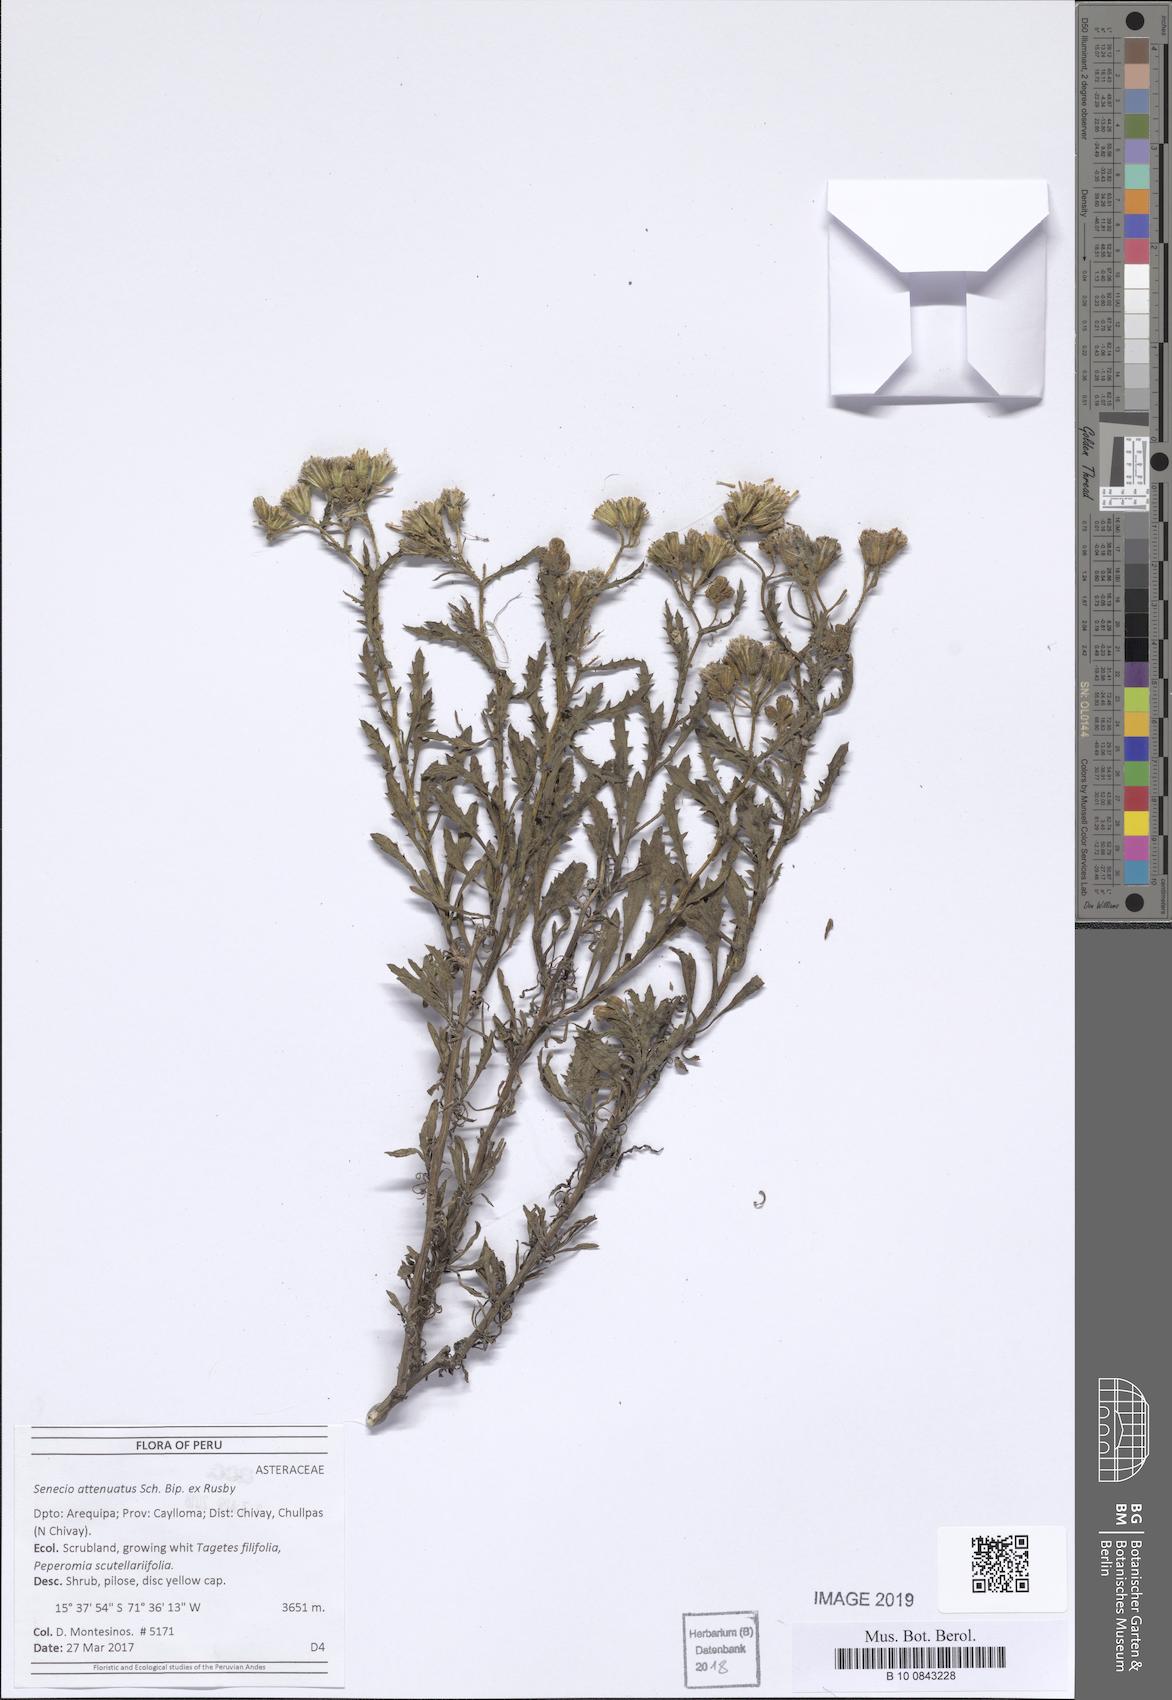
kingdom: Plantae
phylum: Tracheophyta
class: Magnoliopsida
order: Asterales
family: Asteraceae
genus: Senecio
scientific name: Senecio attenuatus
